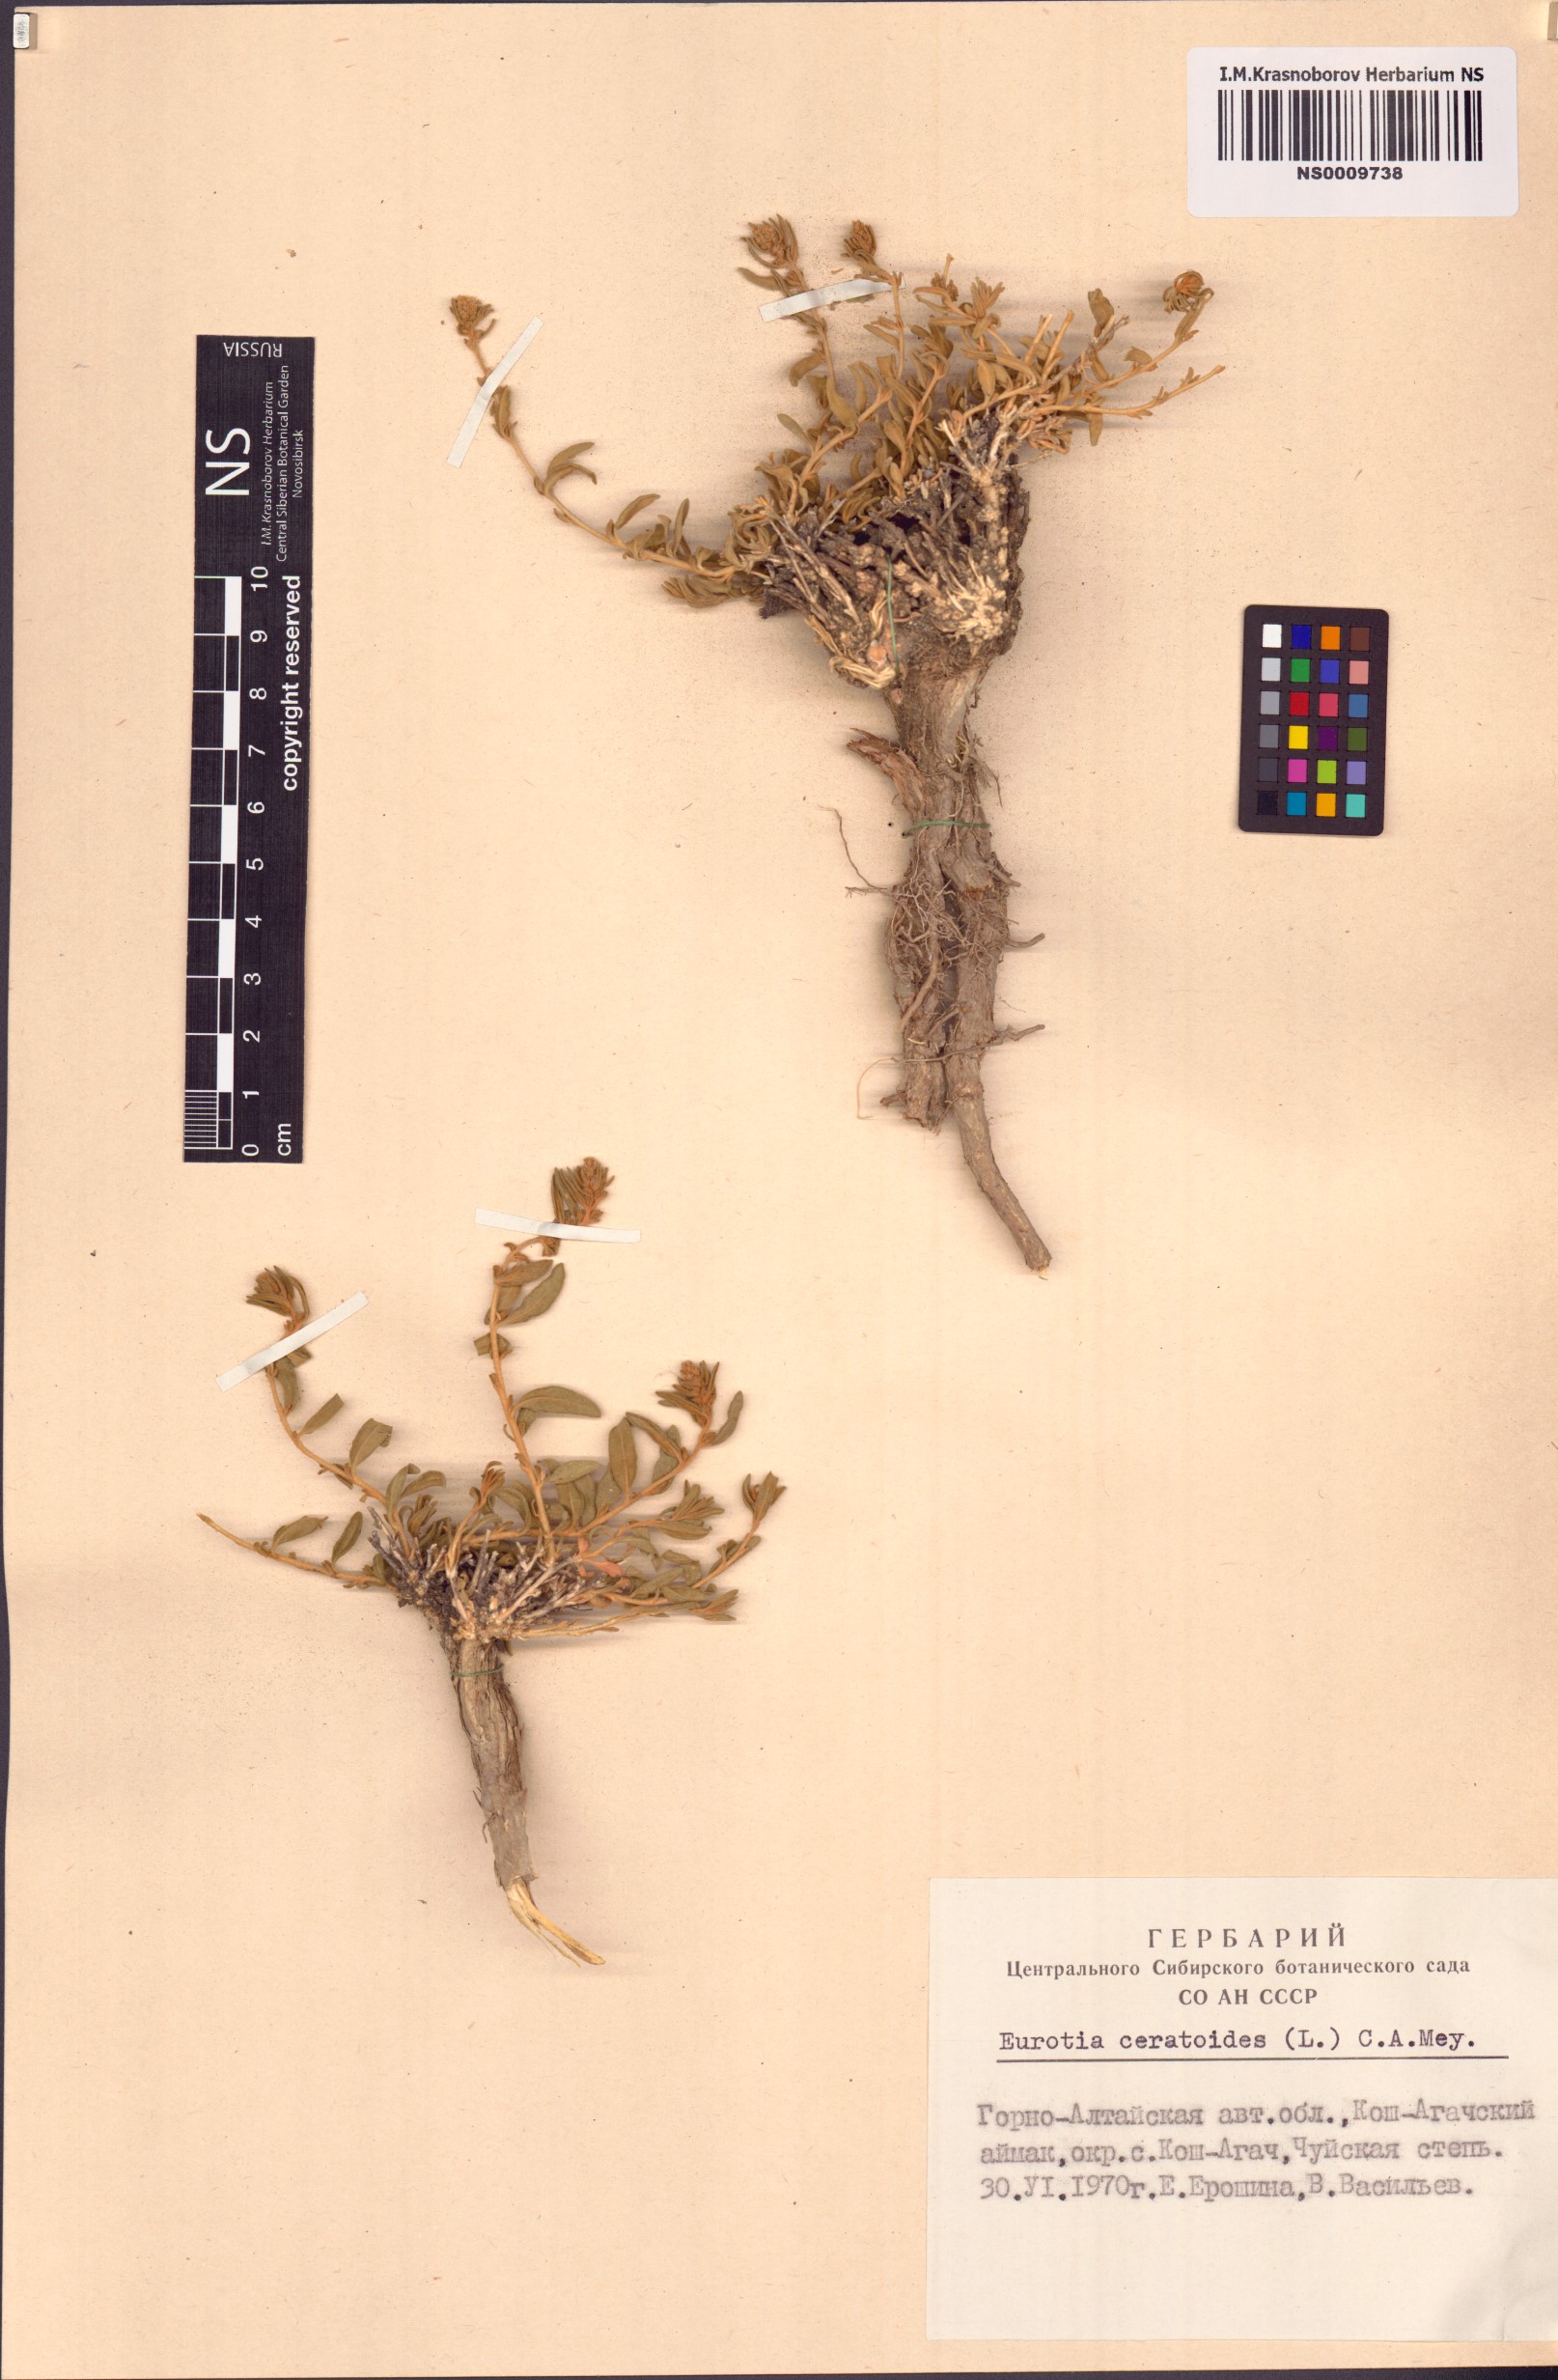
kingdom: Plantae
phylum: Tracheophyta
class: Magnoliopsida
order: Caryophyllales
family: Amaranthaceae
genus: Krascheninnikovia
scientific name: Krascheninnikovia ceratoides
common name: Pamirian winterfat
